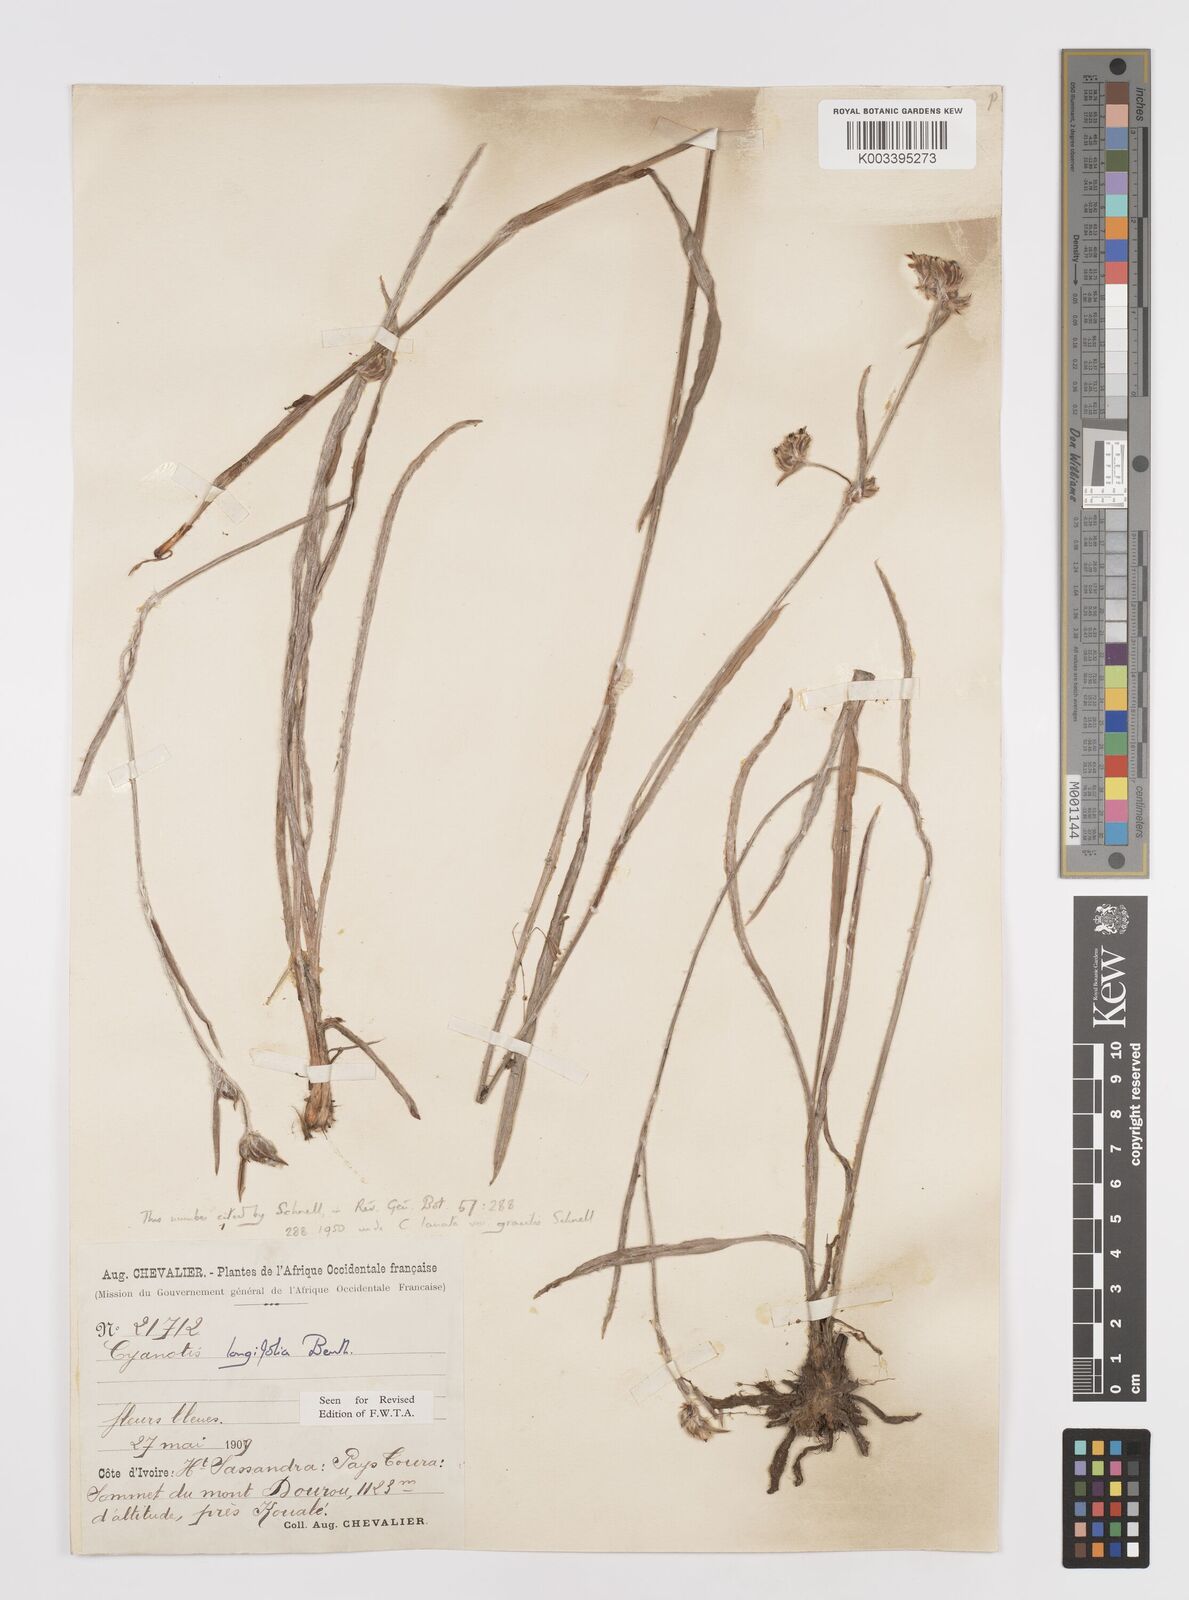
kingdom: Plantae
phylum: Tracheophyta
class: Liliopsida
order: Commelinales
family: Commelinaceae
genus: Cyanotis
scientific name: Cyanotis longifolia
